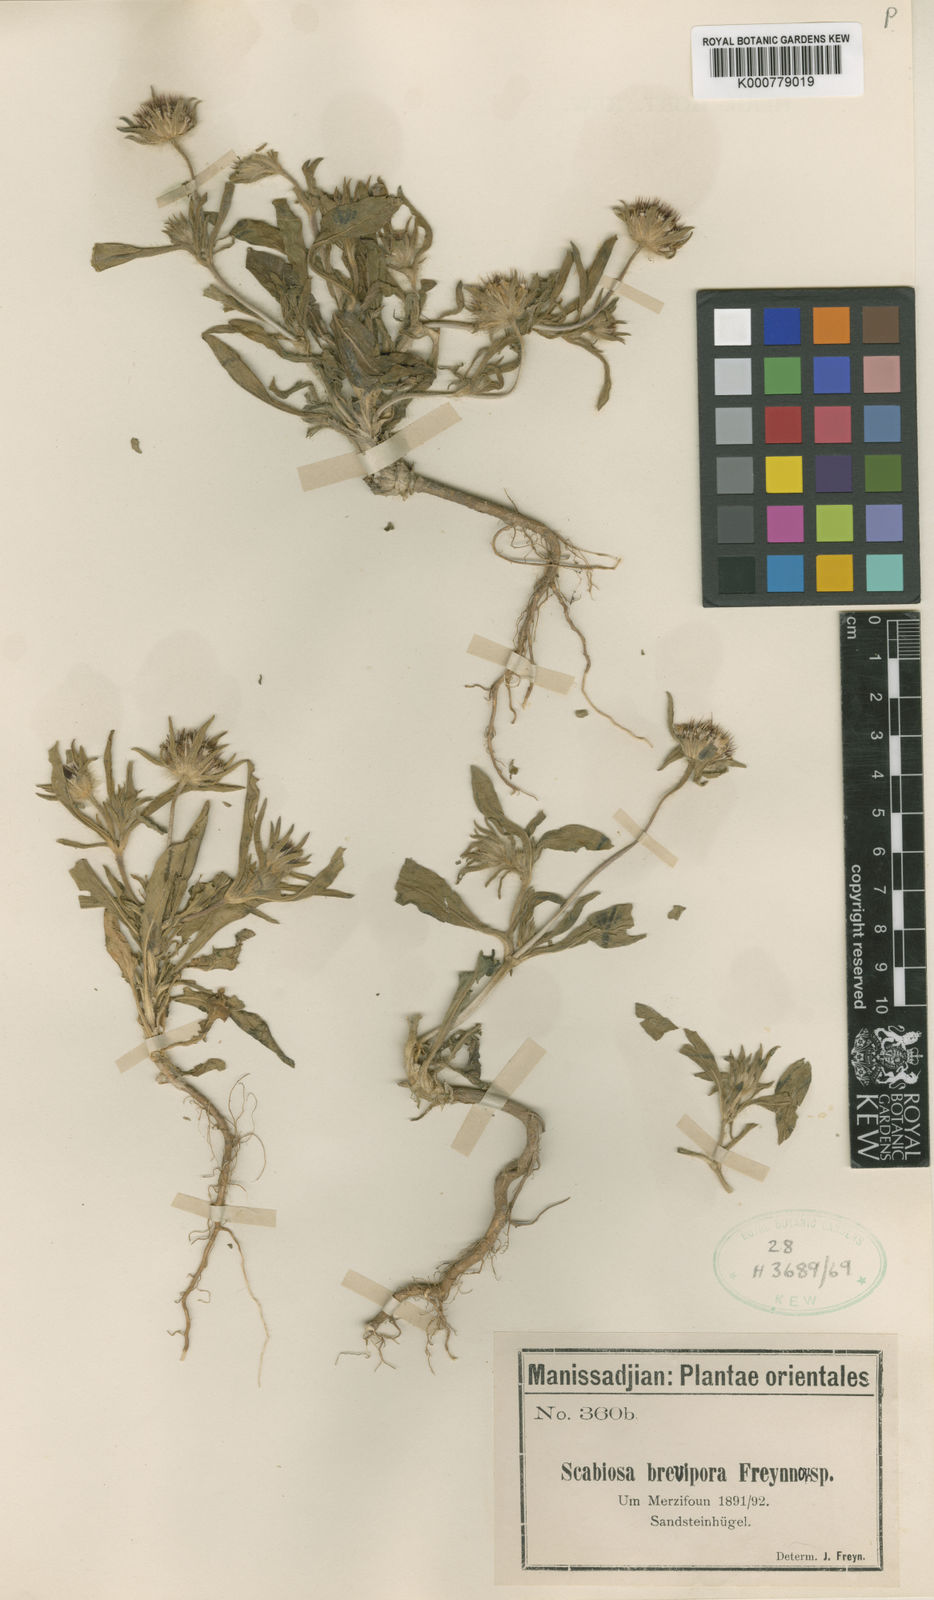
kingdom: Plantae
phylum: Tracheophyta
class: Magnoliopsida
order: Dipsacales
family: Caprifoliaceae
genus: Lomelosia
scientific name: Lomelosia micrantha
